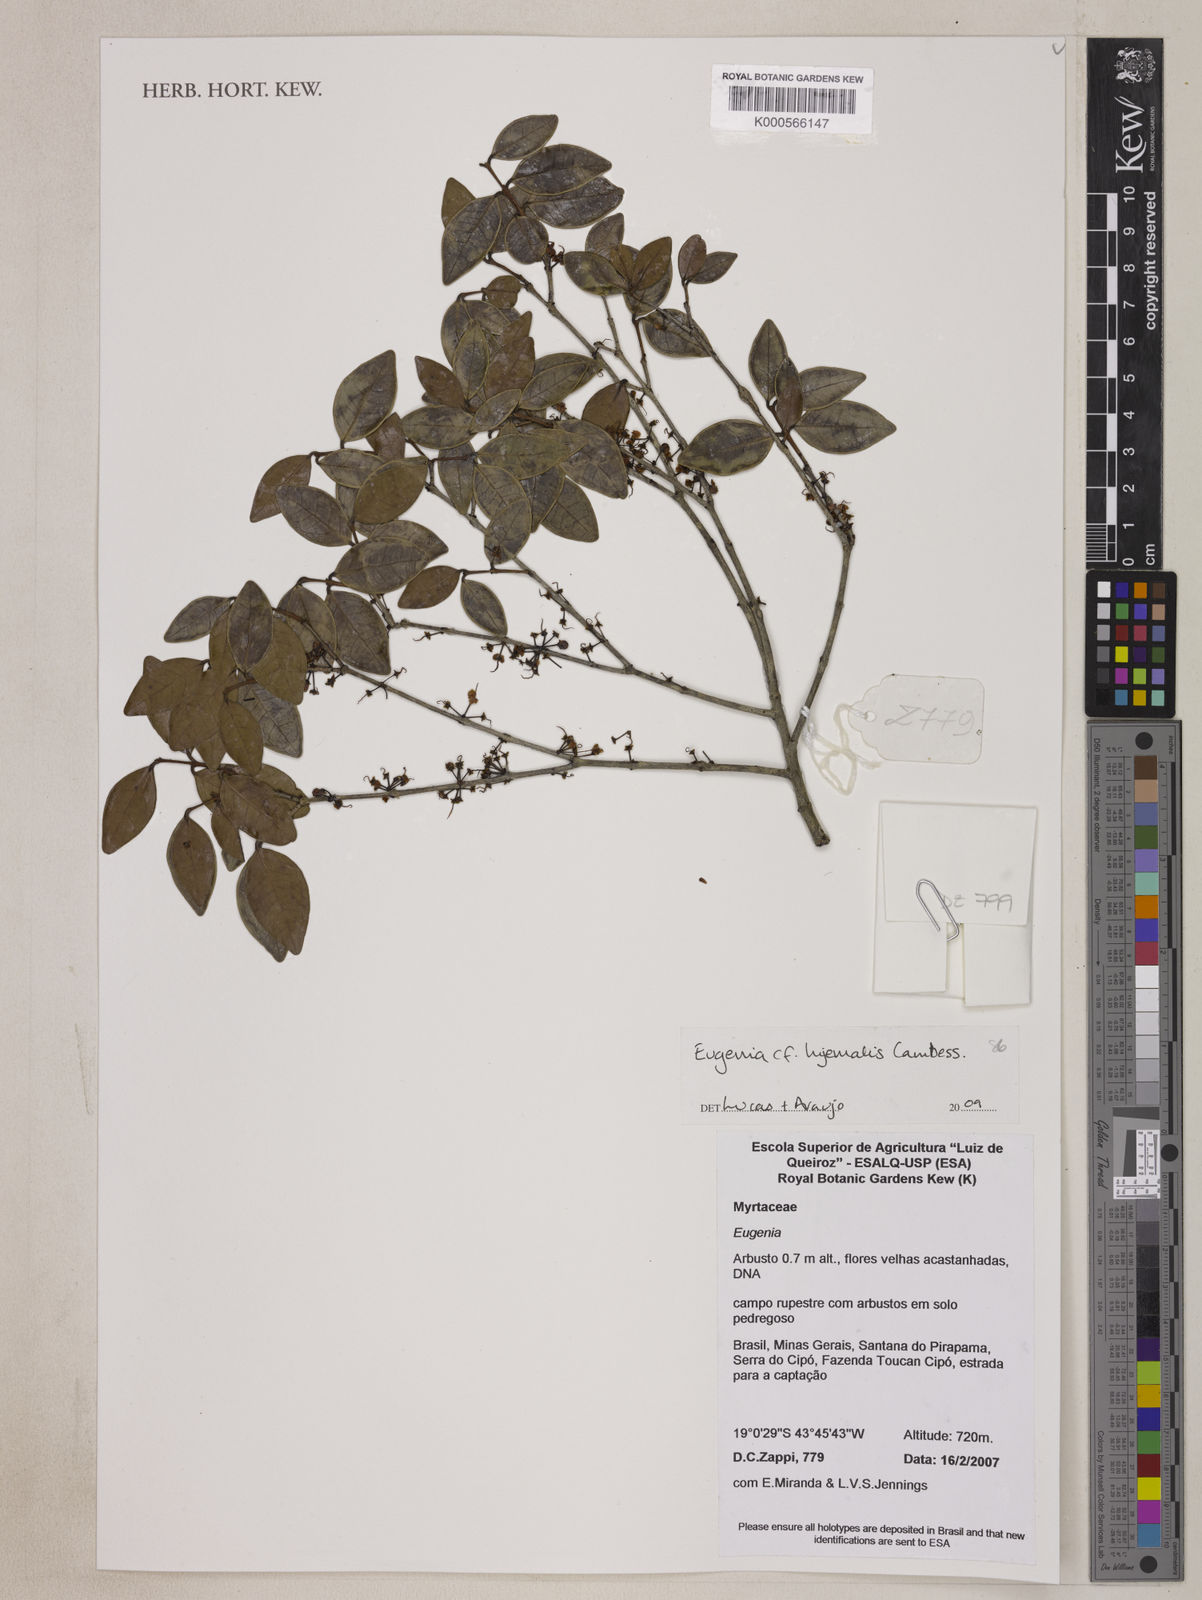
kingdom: Plantae
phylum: Tracheophyta
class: Magnoliopsida
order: Myrtales
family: Myrtaceae
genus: Eugenia
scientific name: Eugenia hiemalis
